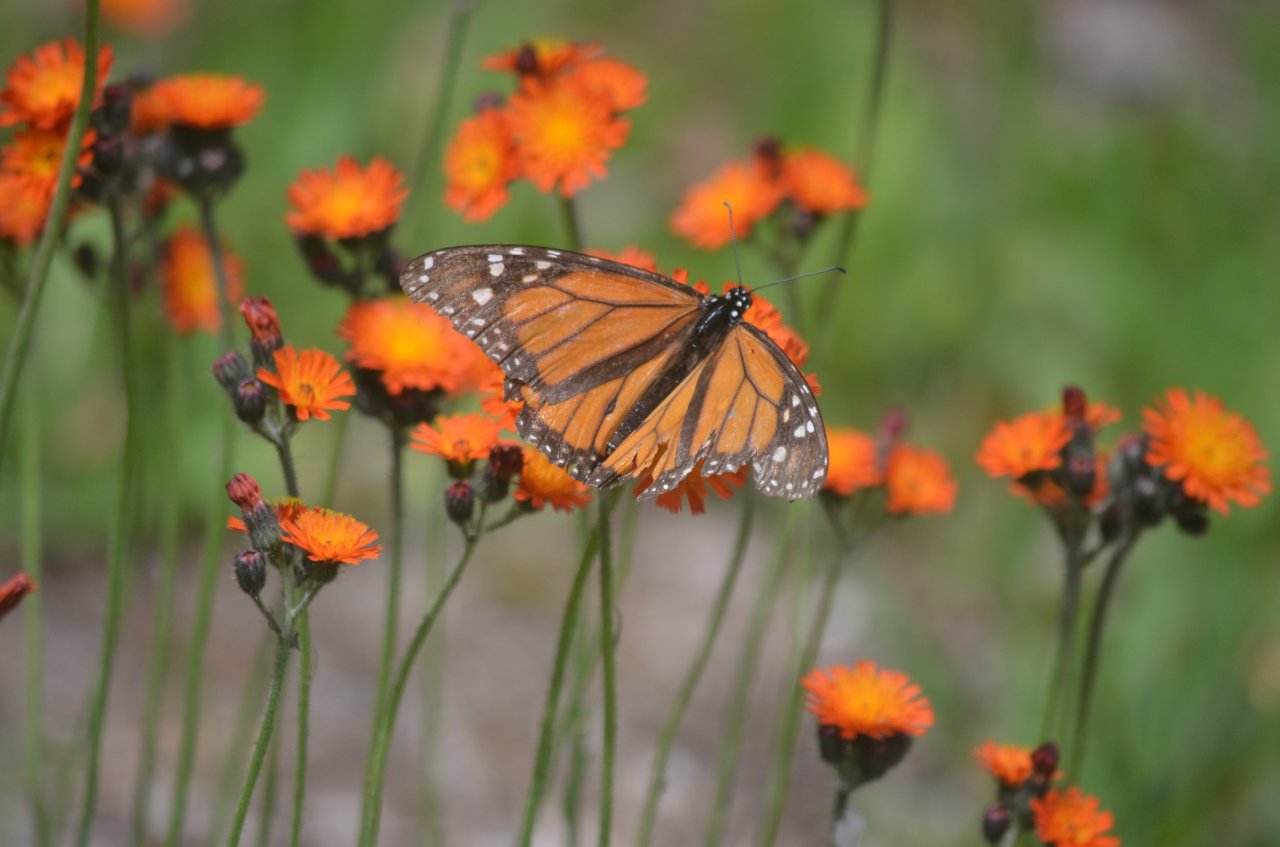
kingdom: Animalia
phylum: Arthropoda
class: Insecta
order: Lepidoptera
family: Nymphalidae
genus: Danaus
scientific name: Danaus plexippus
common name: Monarch
